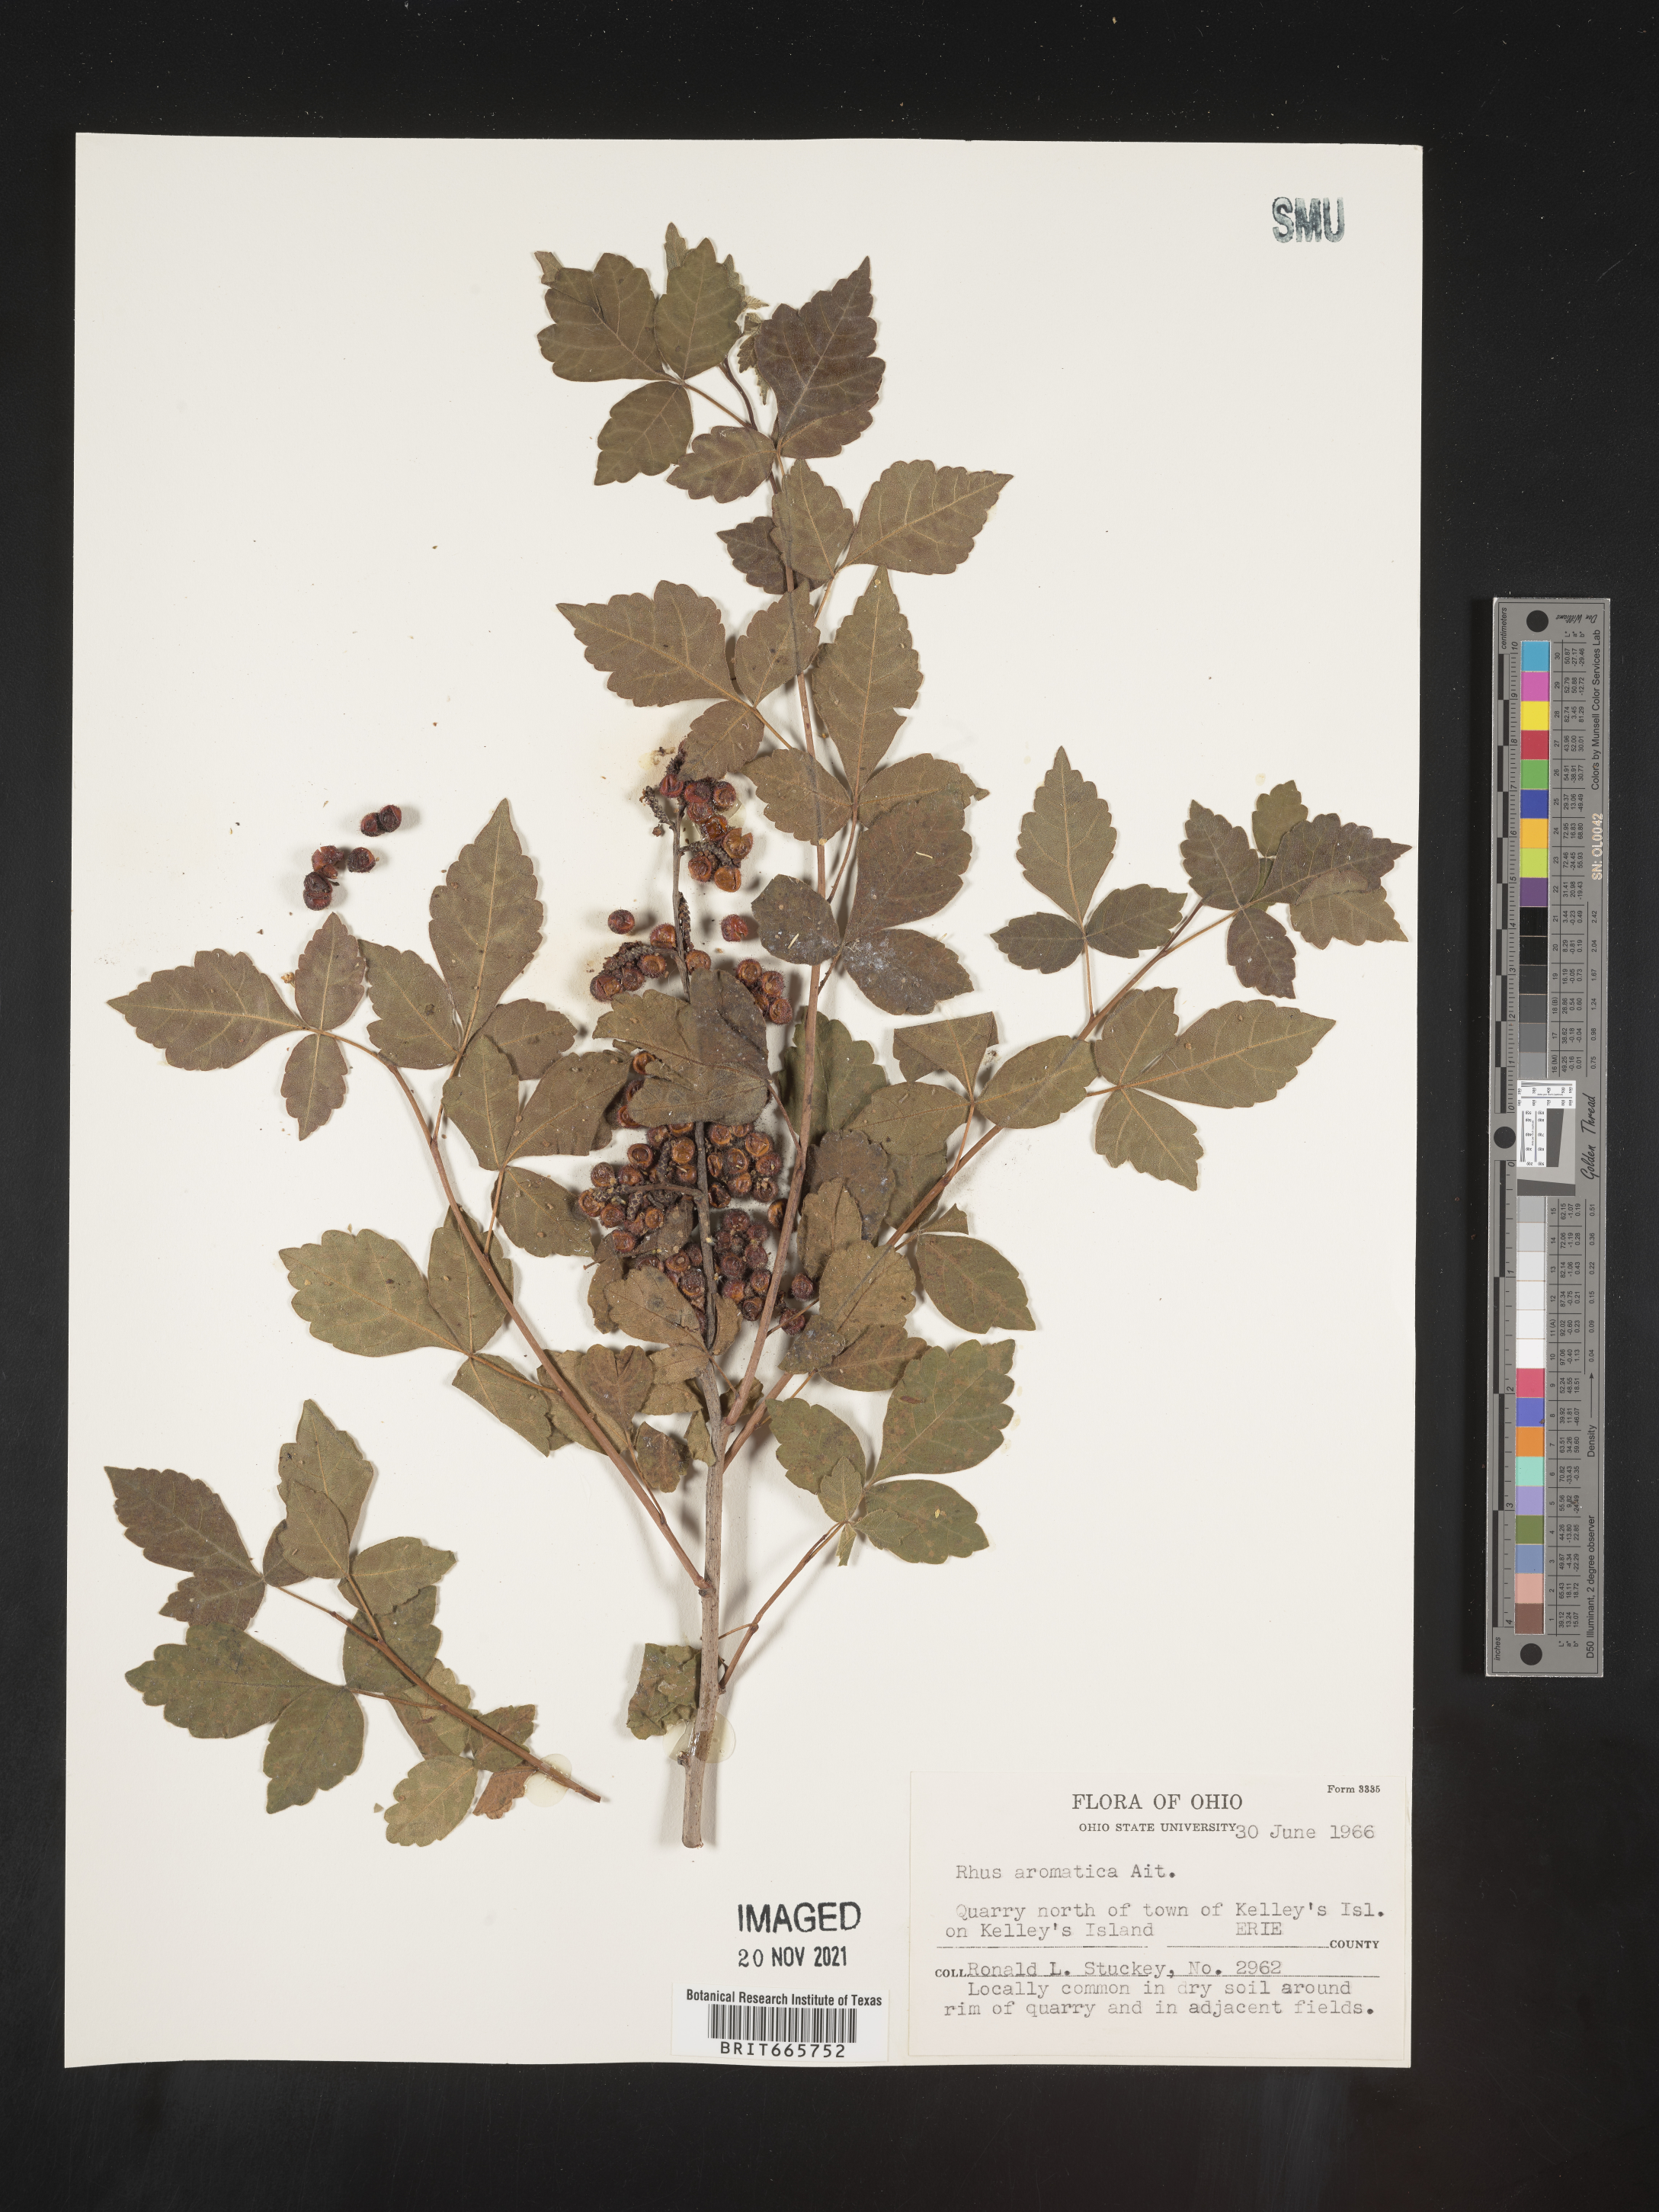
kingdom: Plantae
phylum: Tracheophyta
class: Magnoliopsida
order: Sapindales
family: Anacardiaceae
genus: Rhus
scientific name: Rhus aromatica
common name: Aromatic sumac
